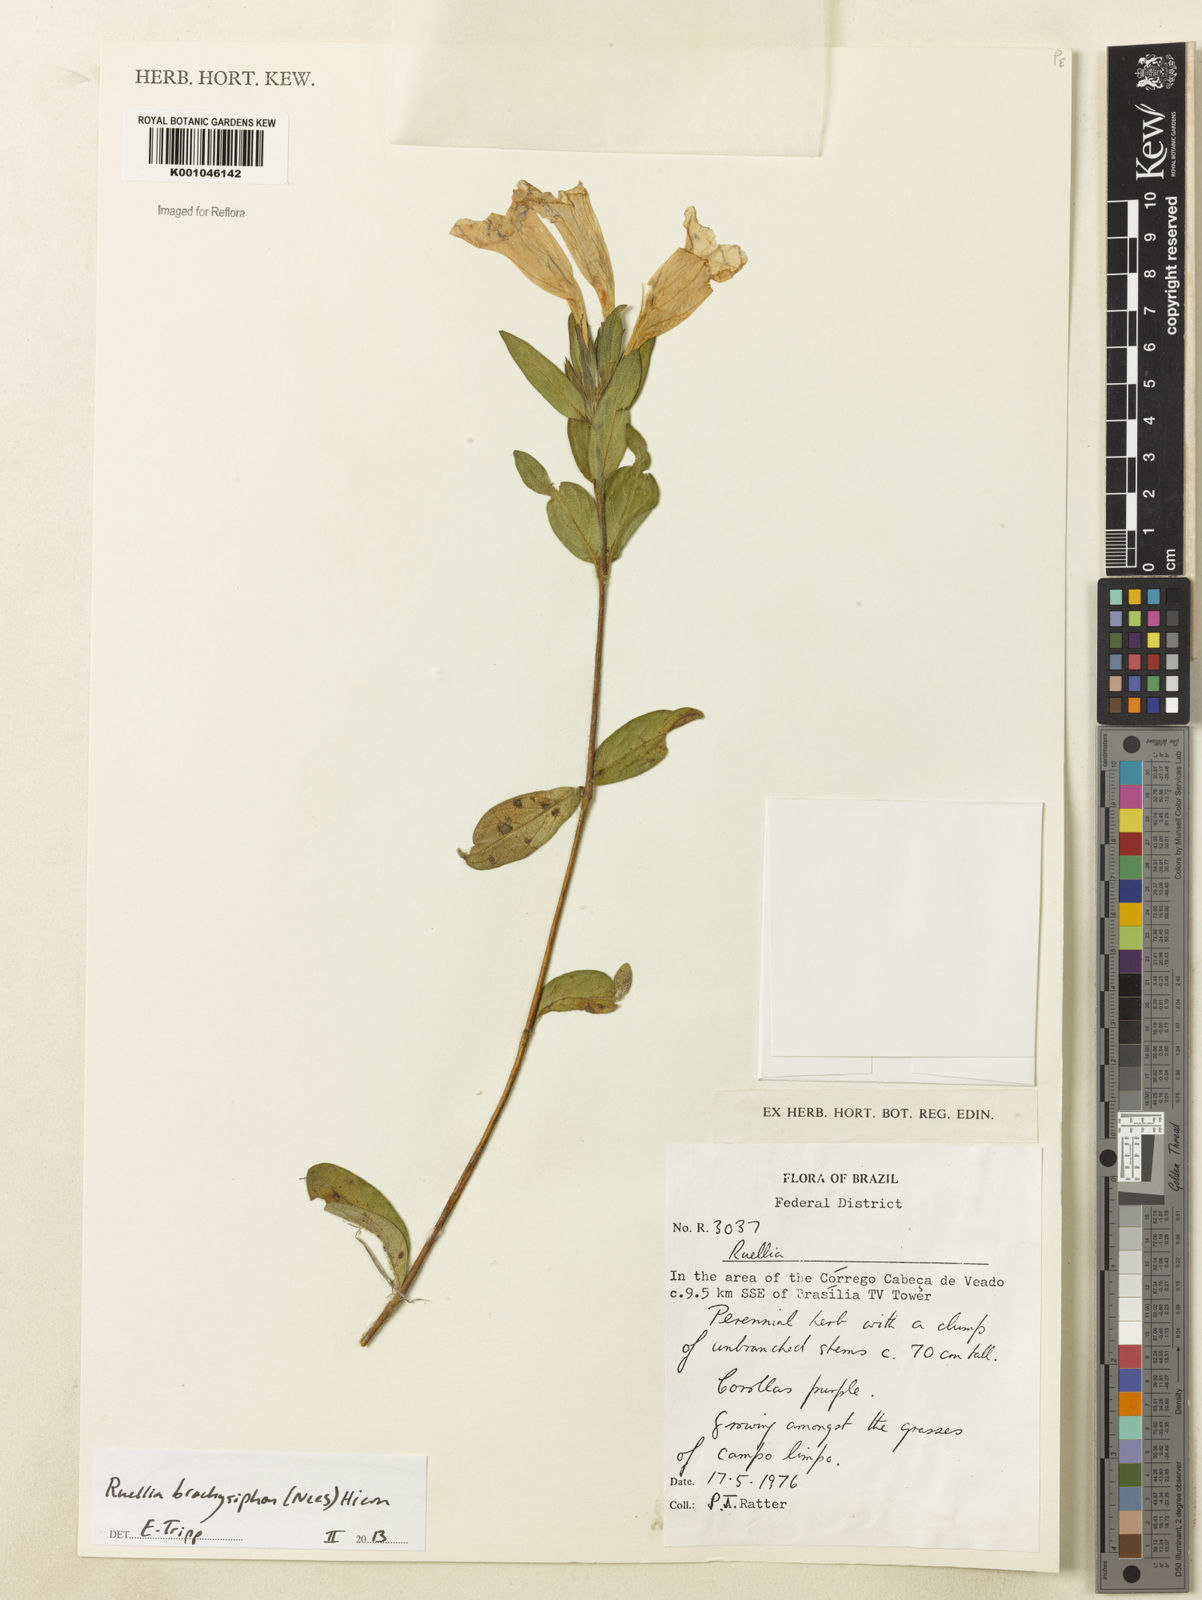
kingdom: Plantae
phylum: Tracheophyta
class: Magnoliopsida
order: Lamiales
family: Acanthaceae
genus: Ruellia
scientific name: Ruellia
